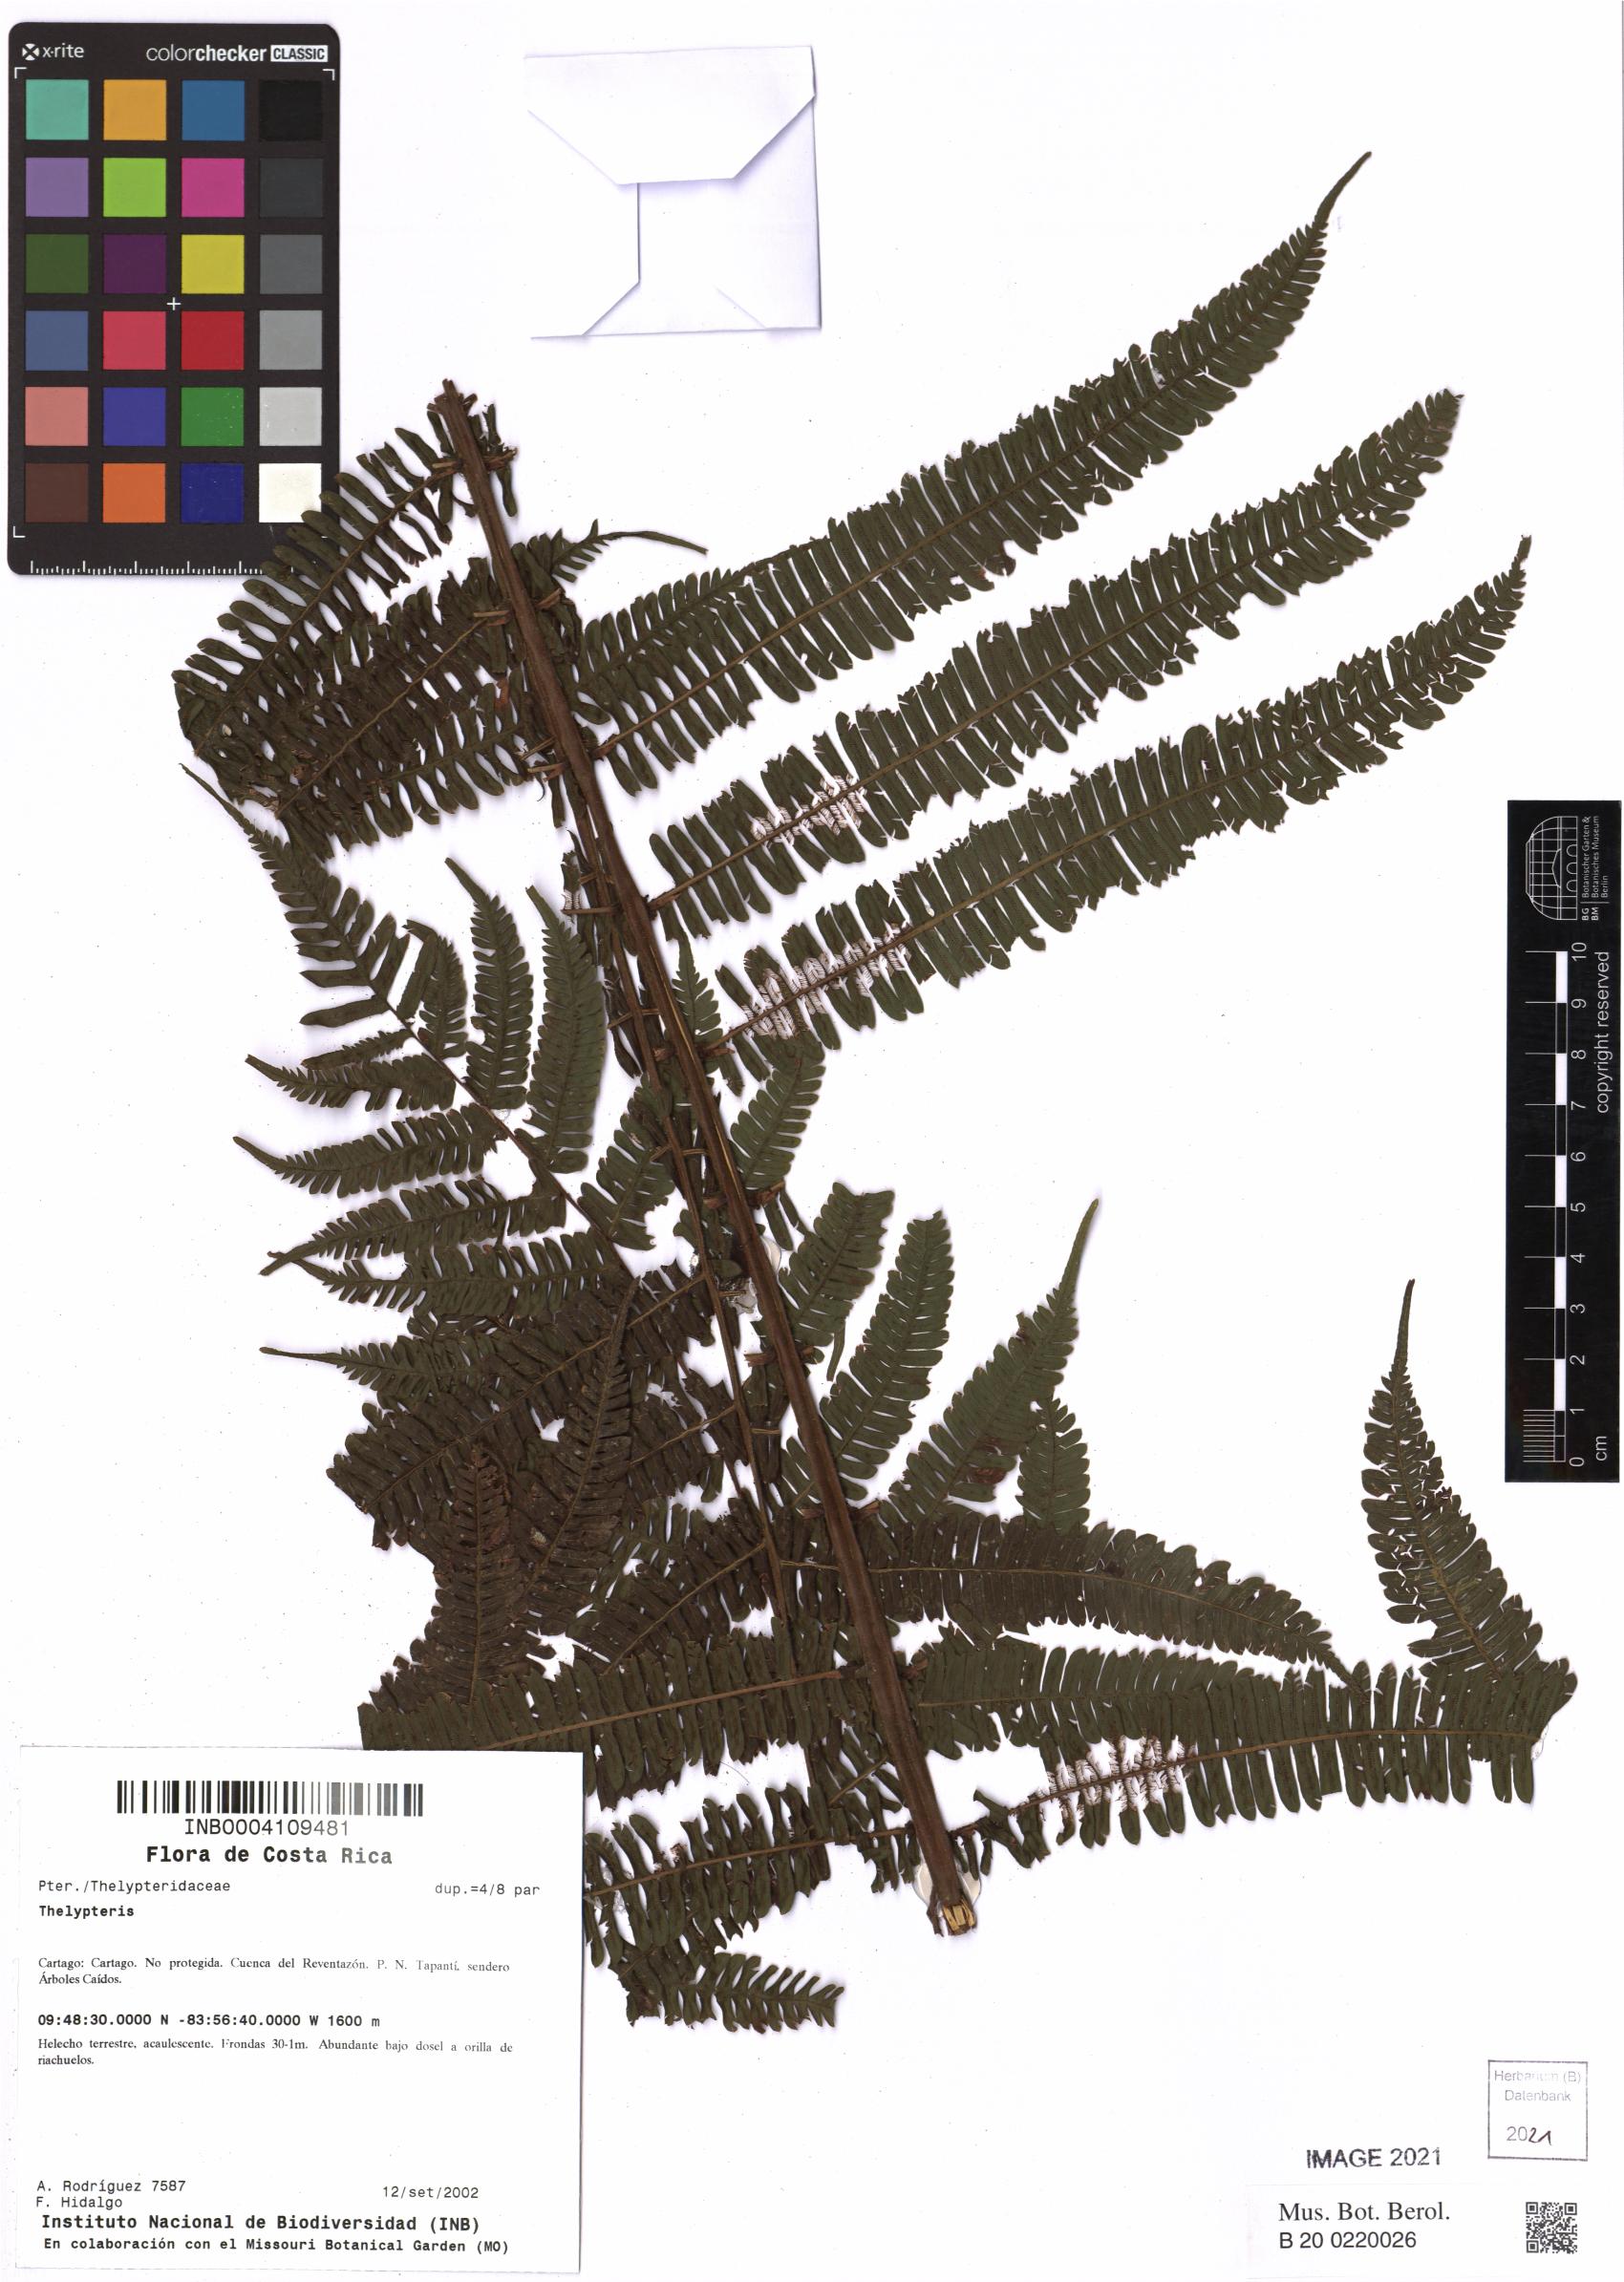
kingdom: Plantae
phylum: Tracheophyta
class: Polypodiopsida
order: Polypodiales
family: Thelypteridaceae
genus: Thelypteris
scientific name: Thelypteris
